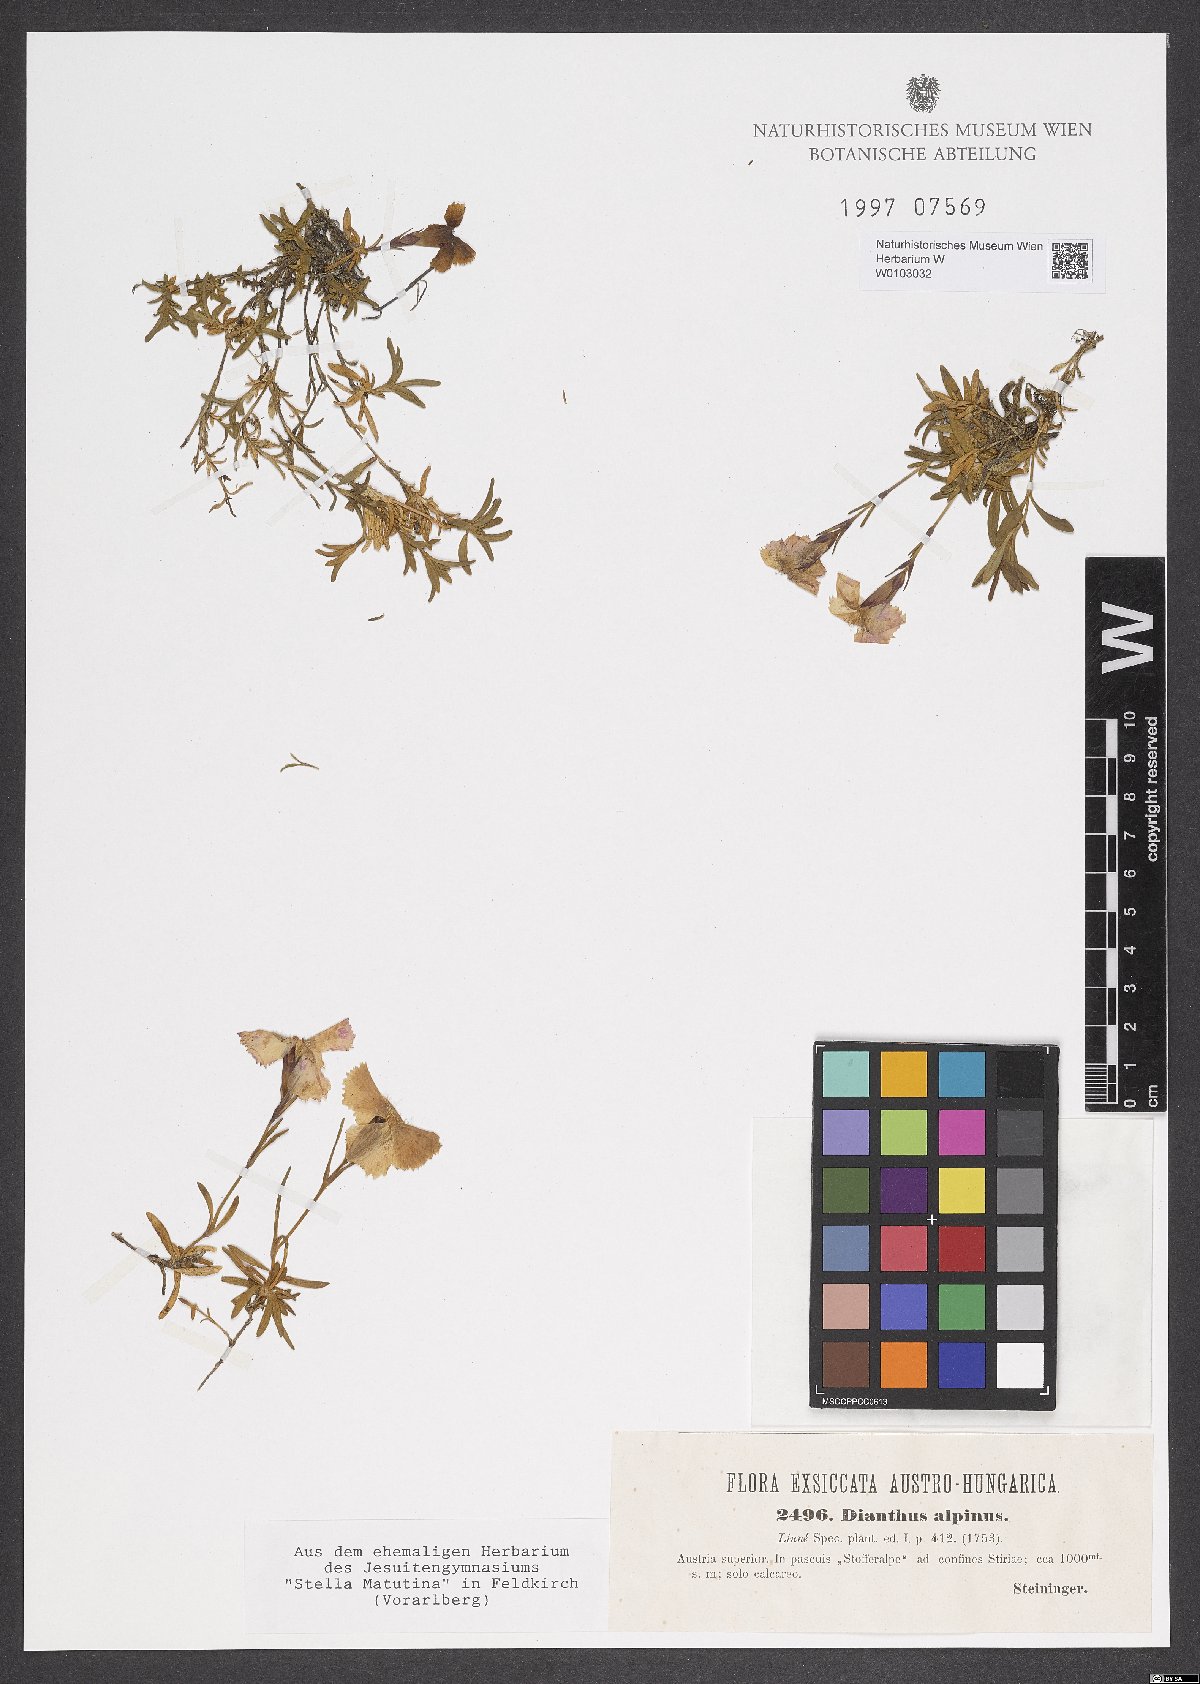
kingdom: Plantae
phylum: Tracheophyta
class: Magnoliopsida
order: Caryophyllales
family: Caryophyllaceae
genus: Dianthus
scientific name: Dianthus alpinus
